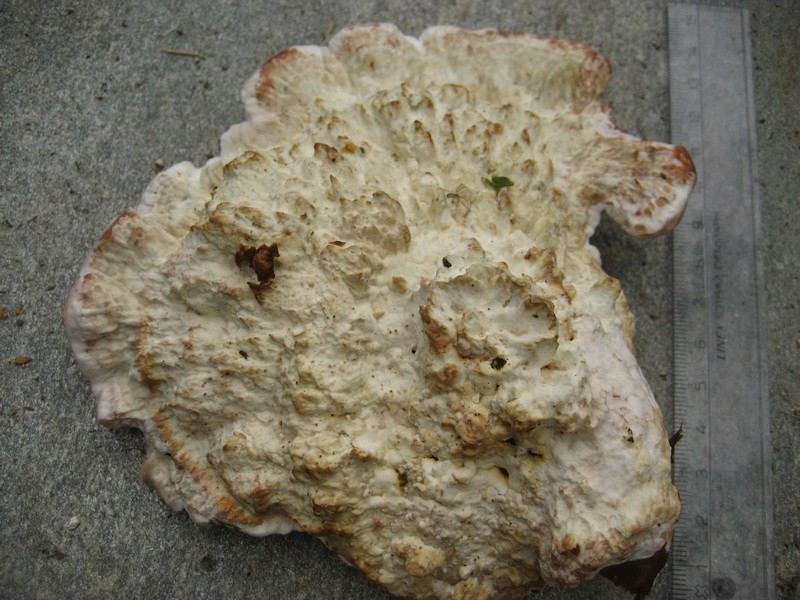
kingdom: Fungi
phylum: Basidiomycota
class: Agaricomycetes
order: Polyporales
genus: Calcipostia
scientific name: Calcipostia guttulata
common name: dråbe-kødporesvamp
